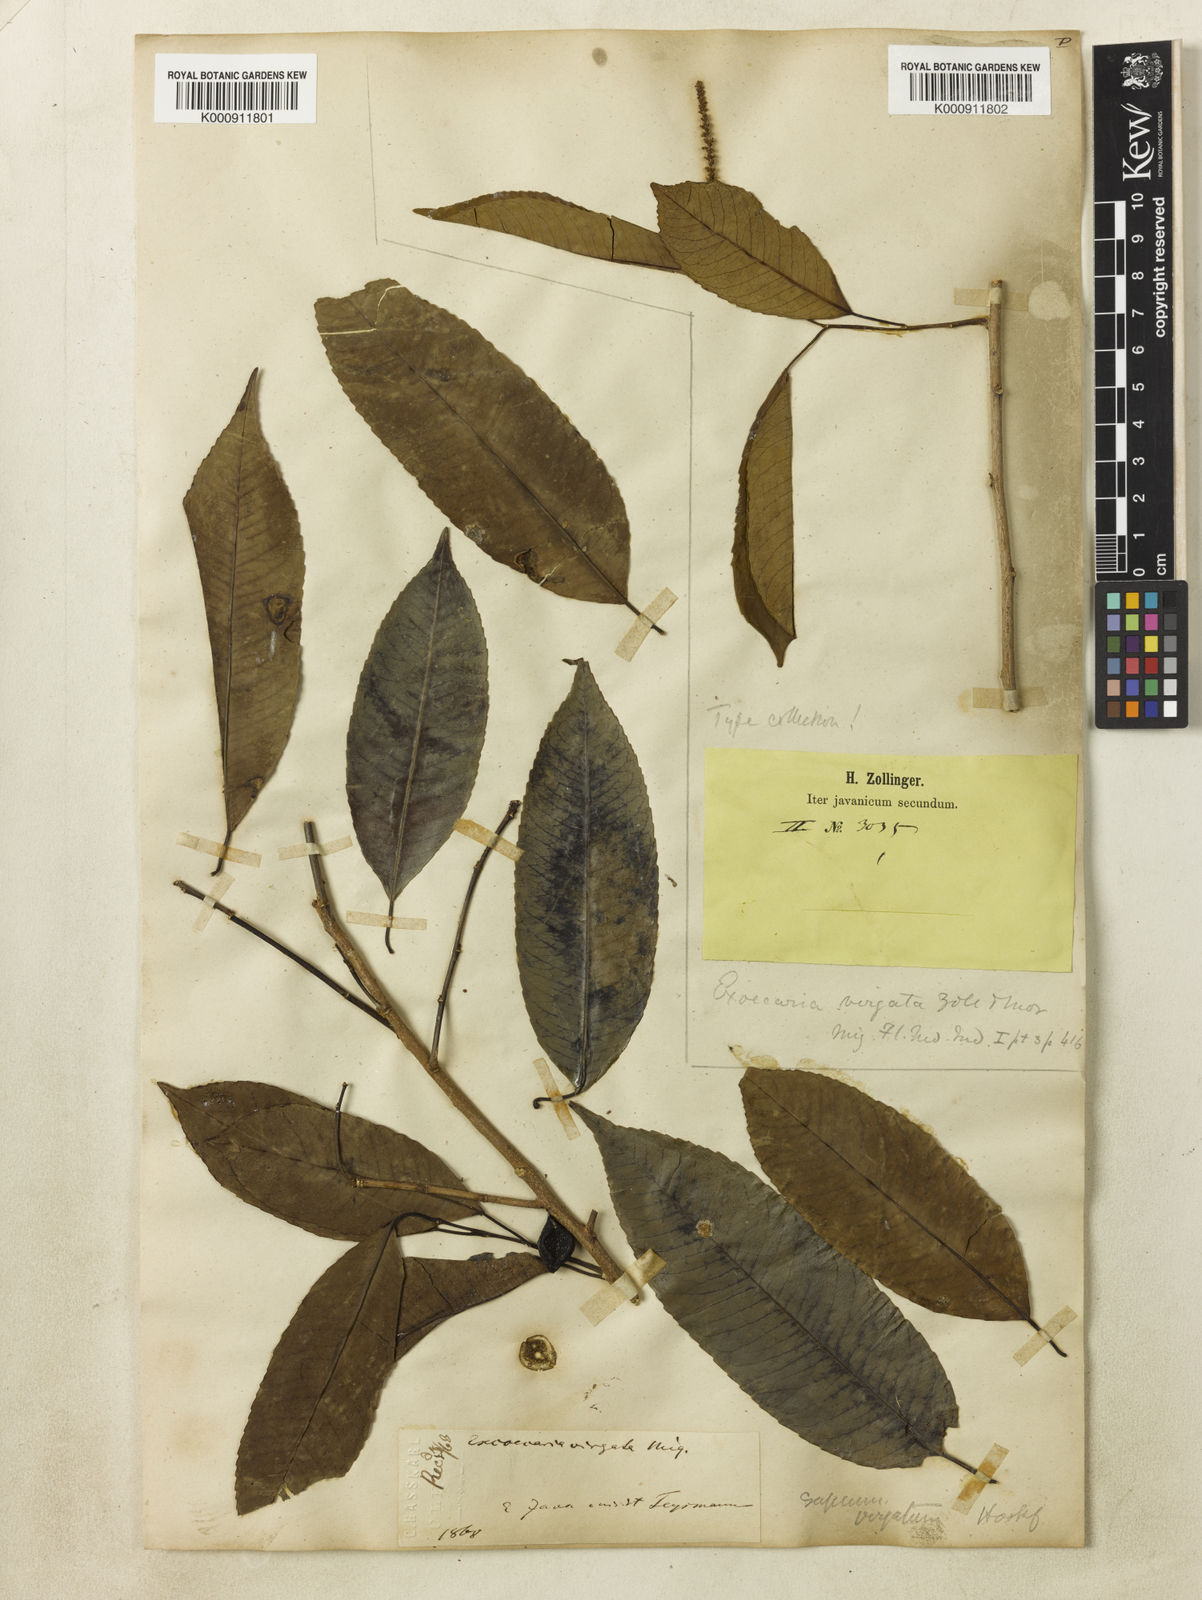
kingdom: Plantae
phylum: Tracheophyta
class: Magnoliopsida
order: Malpighiales
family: Euphorbiaceae
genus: Shirakiopsis
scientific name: Shirakiopsis virgata
